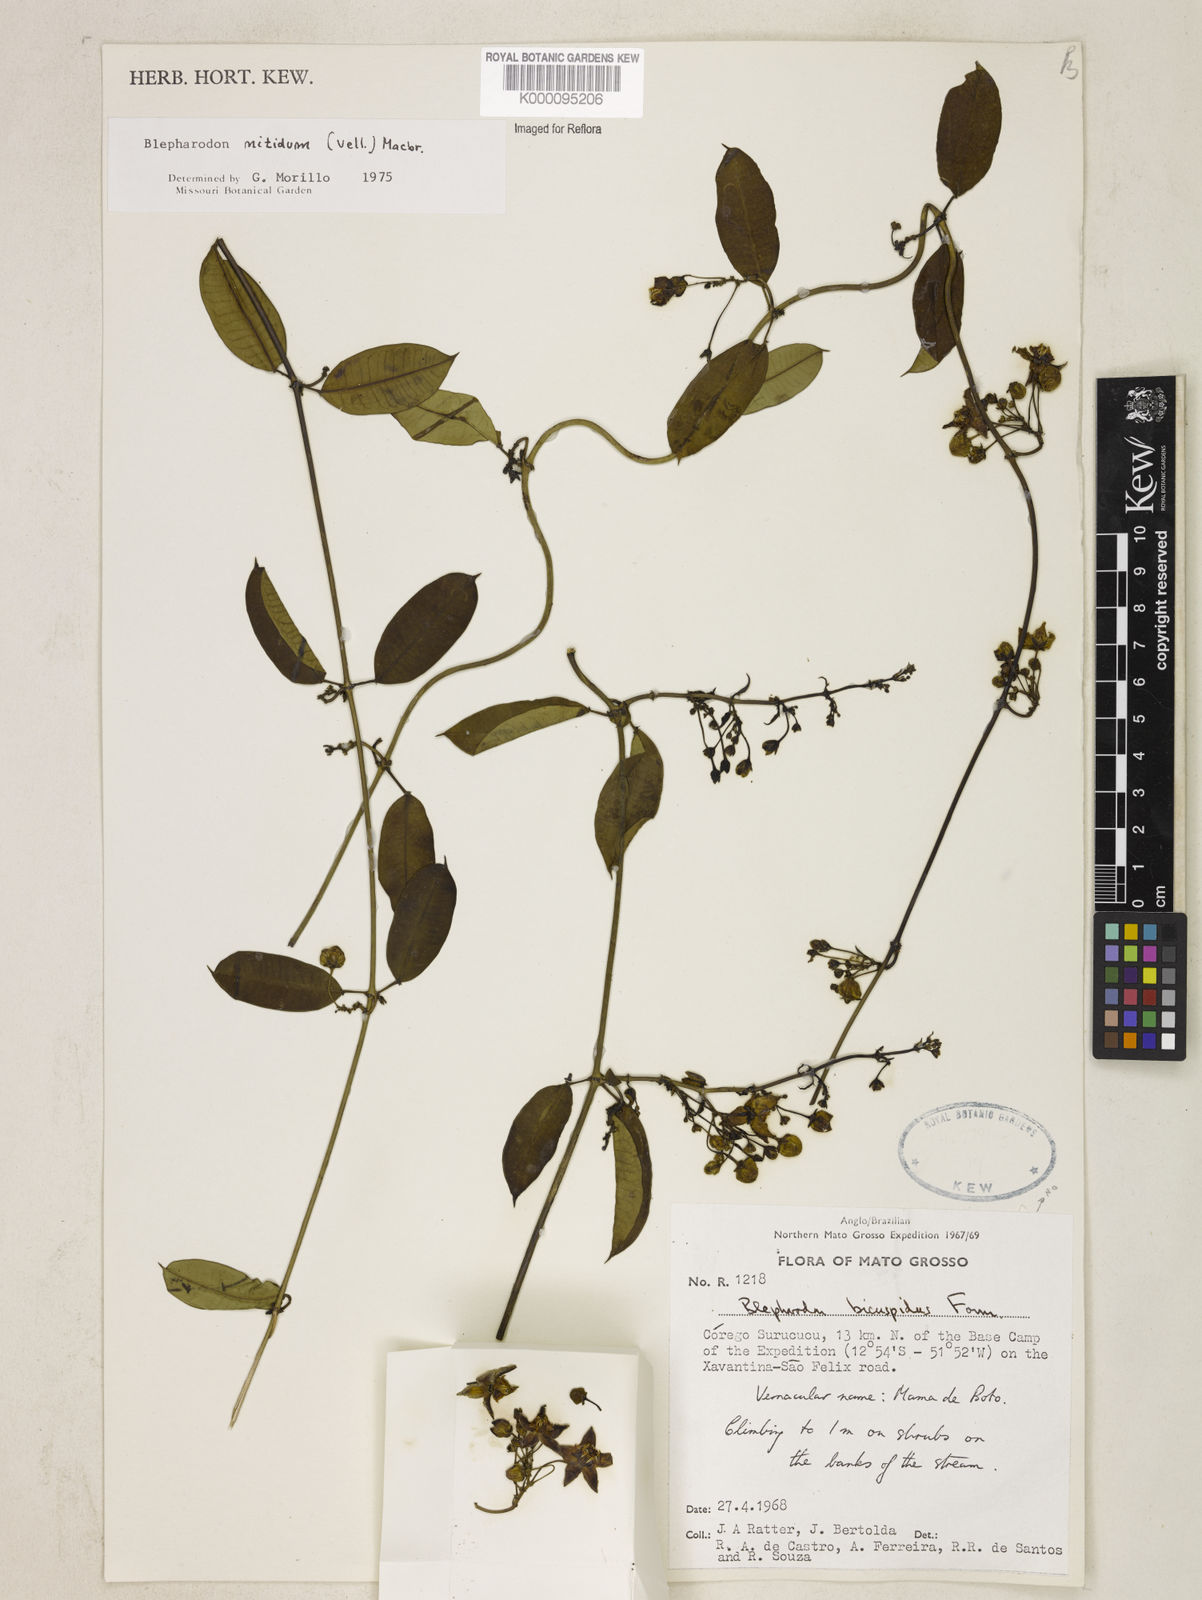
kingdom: Plantae
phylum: Tracheophyta
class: Magnoliopsida
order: Gentianales
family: Apocynaceae
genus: Blepharodon
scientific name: Blepharodon pictum
